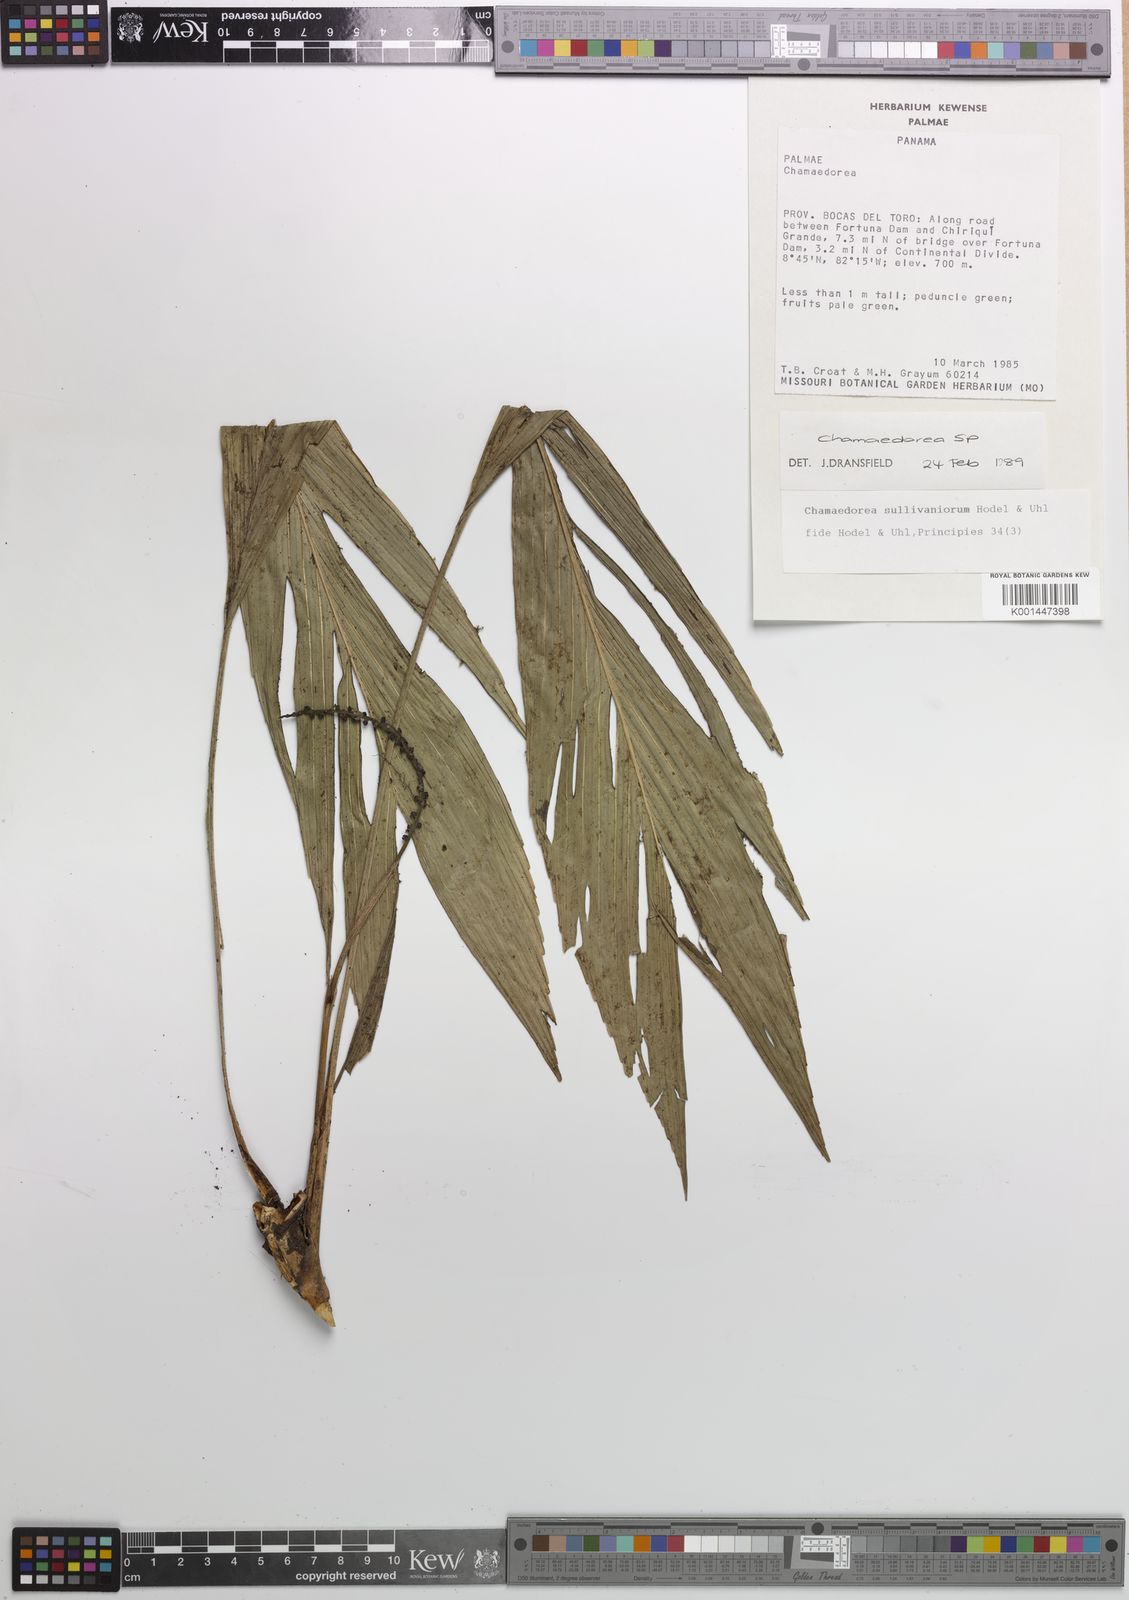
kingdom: Plantae
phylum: Tracheophyta
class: Liliopsida
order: Arecales
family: Arecaceae
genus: Chamaedorea
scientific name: Chamaedorea pumila
